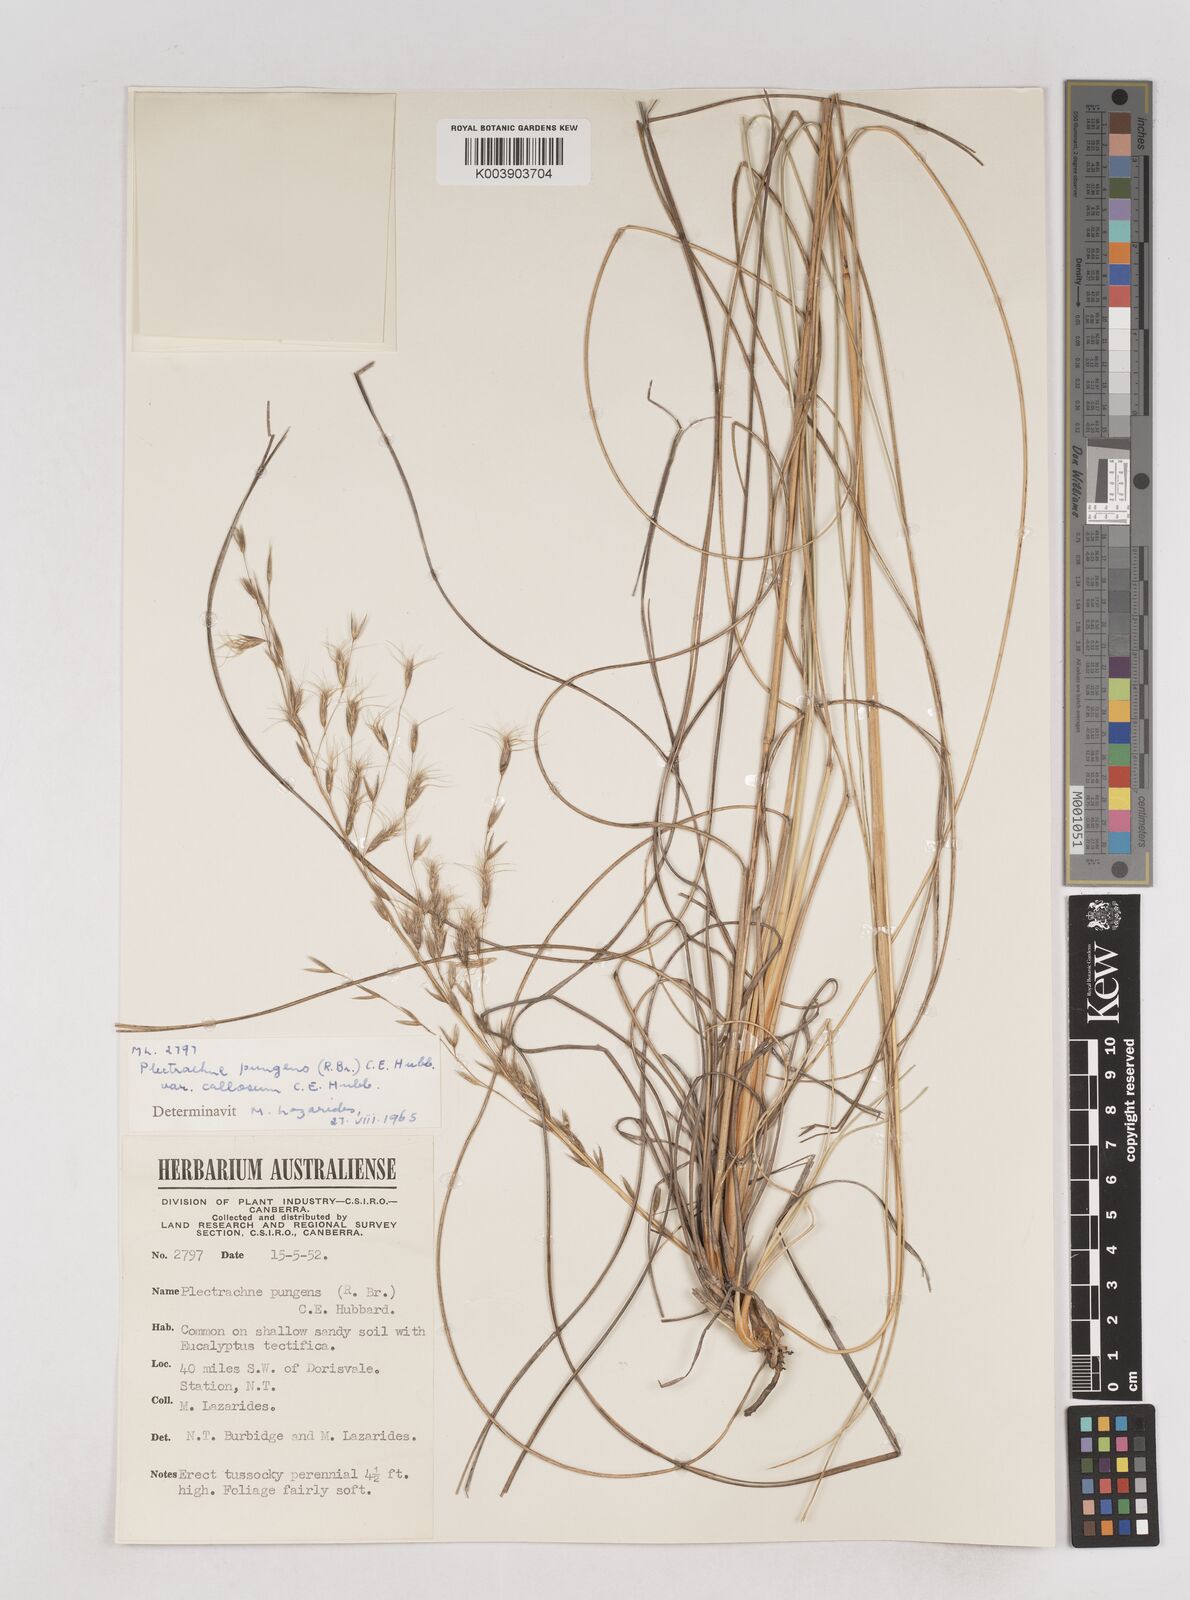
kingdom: Plantae
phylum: Tracheophyta
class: Liliopsida
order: Poales
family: Poaceae
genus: Triodia
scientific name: Triodia bitextura
